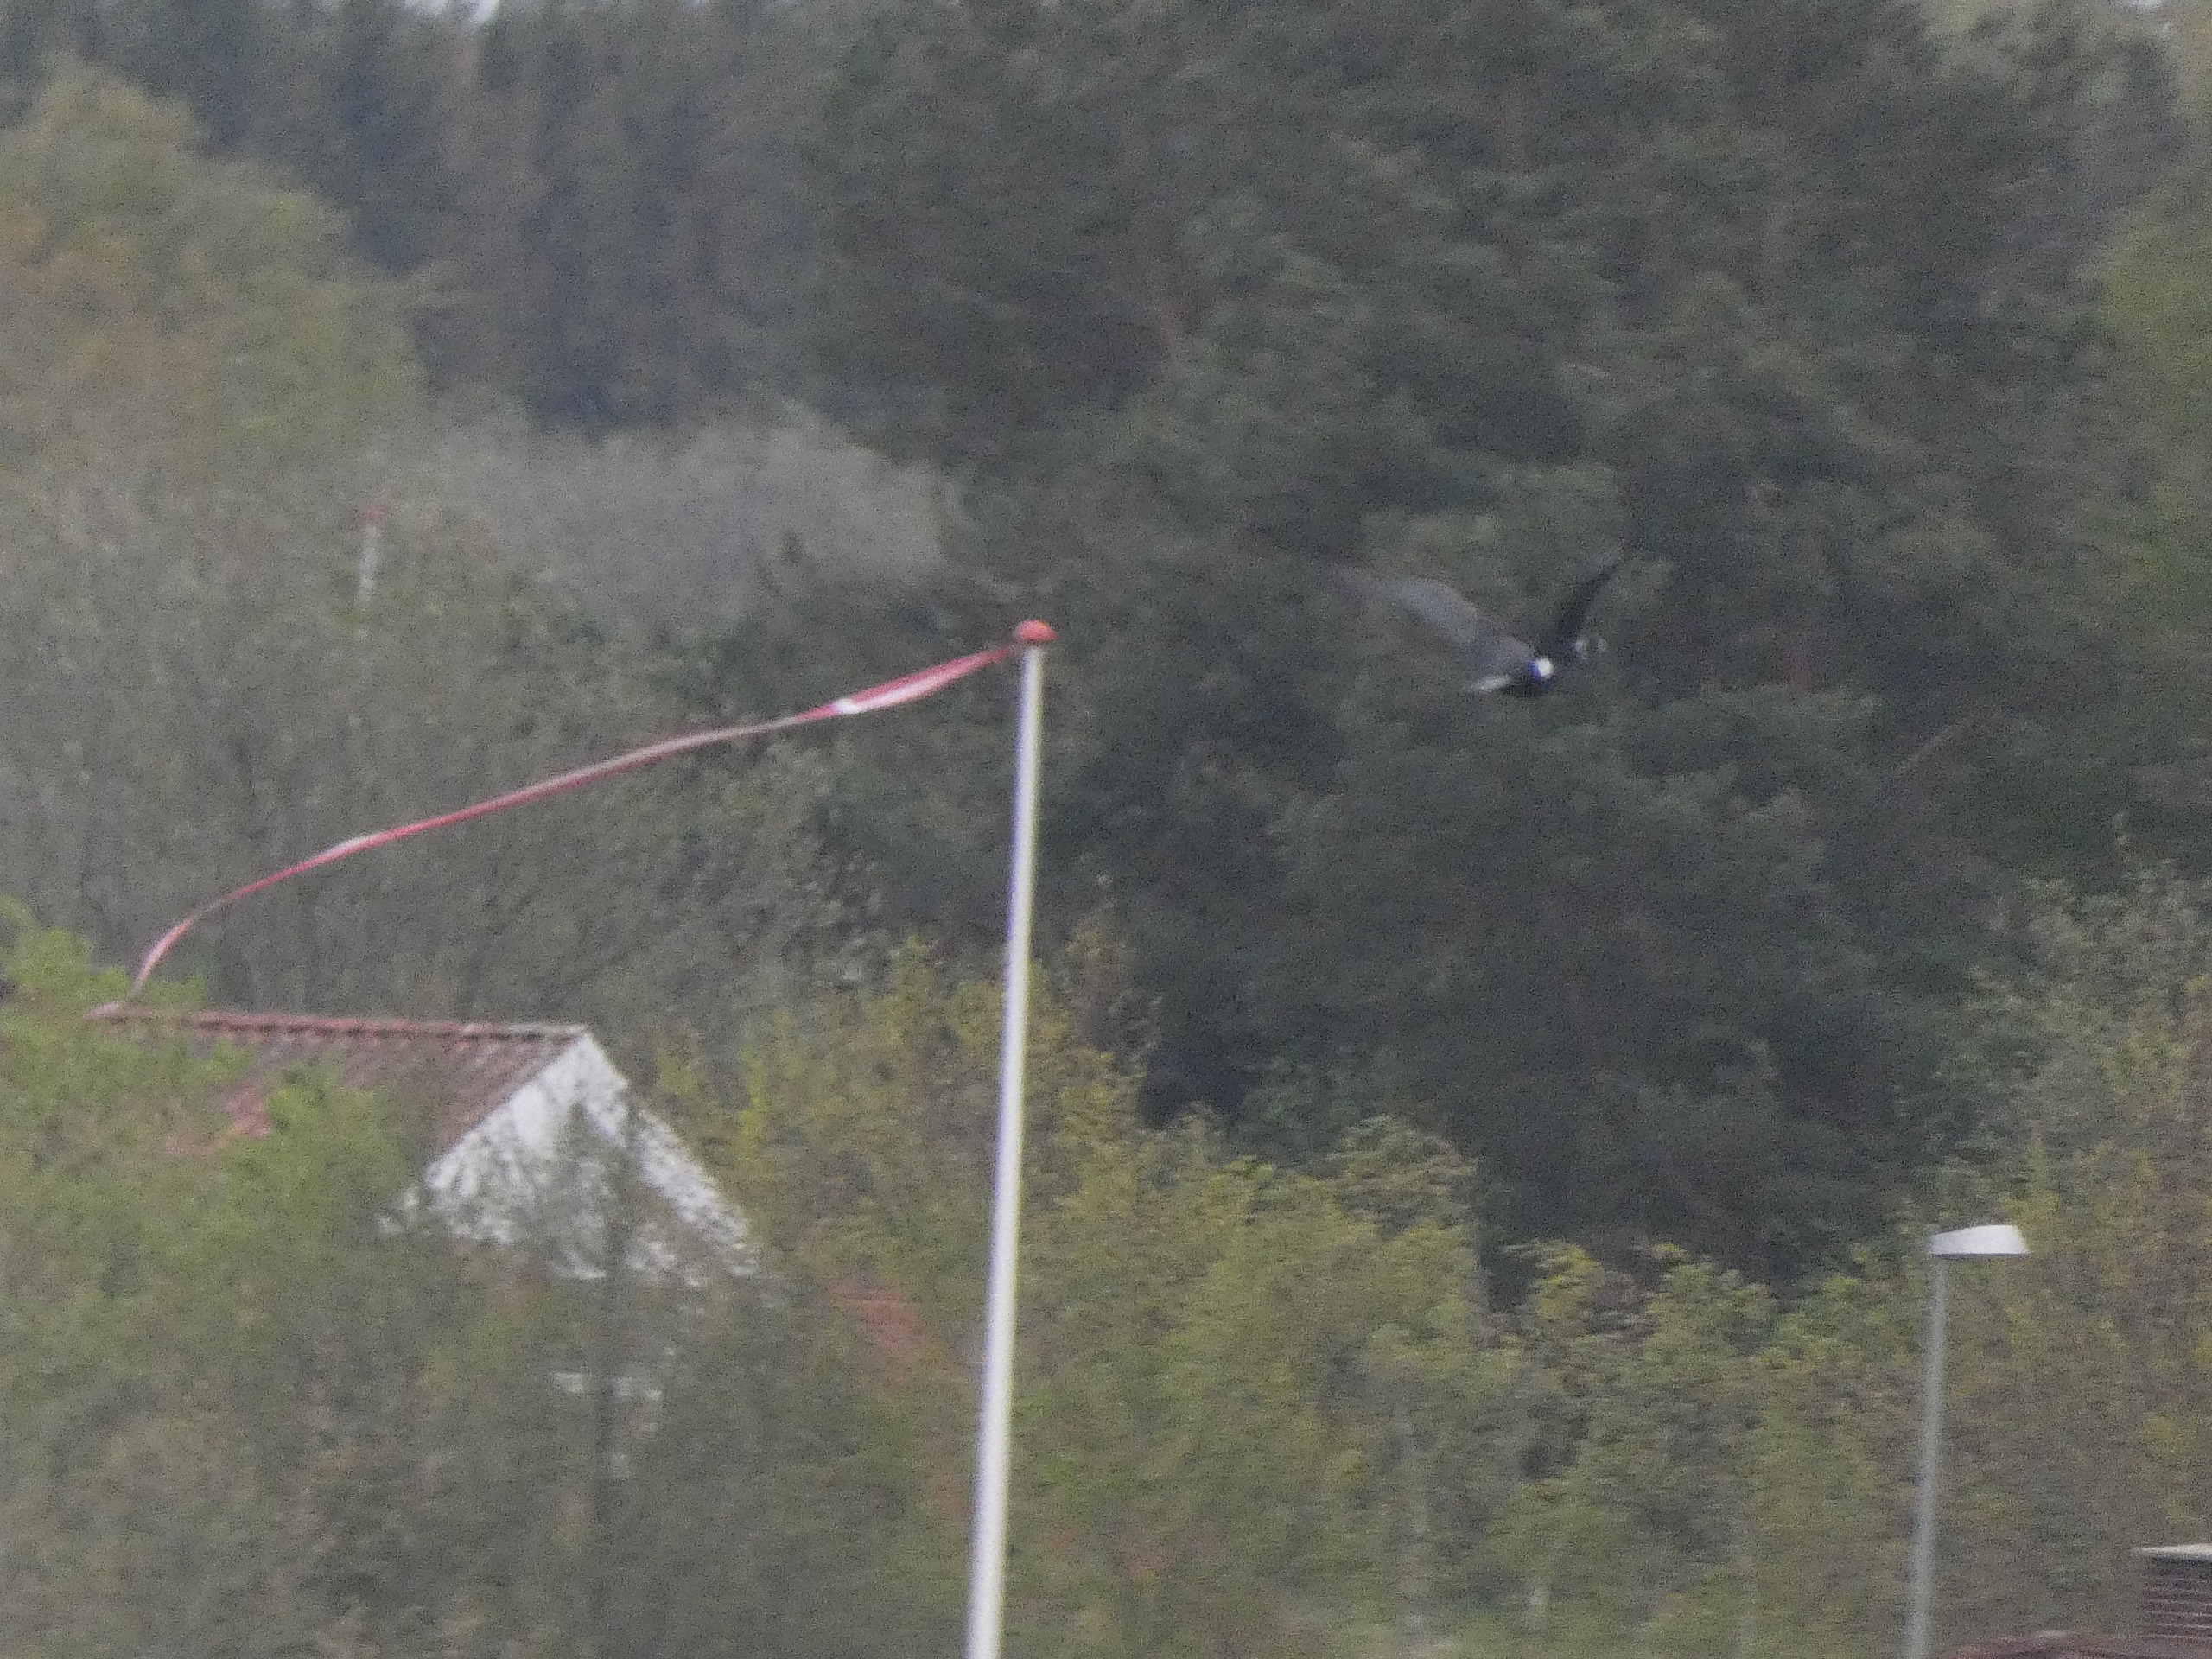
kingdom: Animalia
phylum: Chordata
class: Aves
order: Suliformes
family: Phalacrocoracidae
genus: Phalacrocorax
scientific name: Phalacrocorax carbo
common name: Skarv
